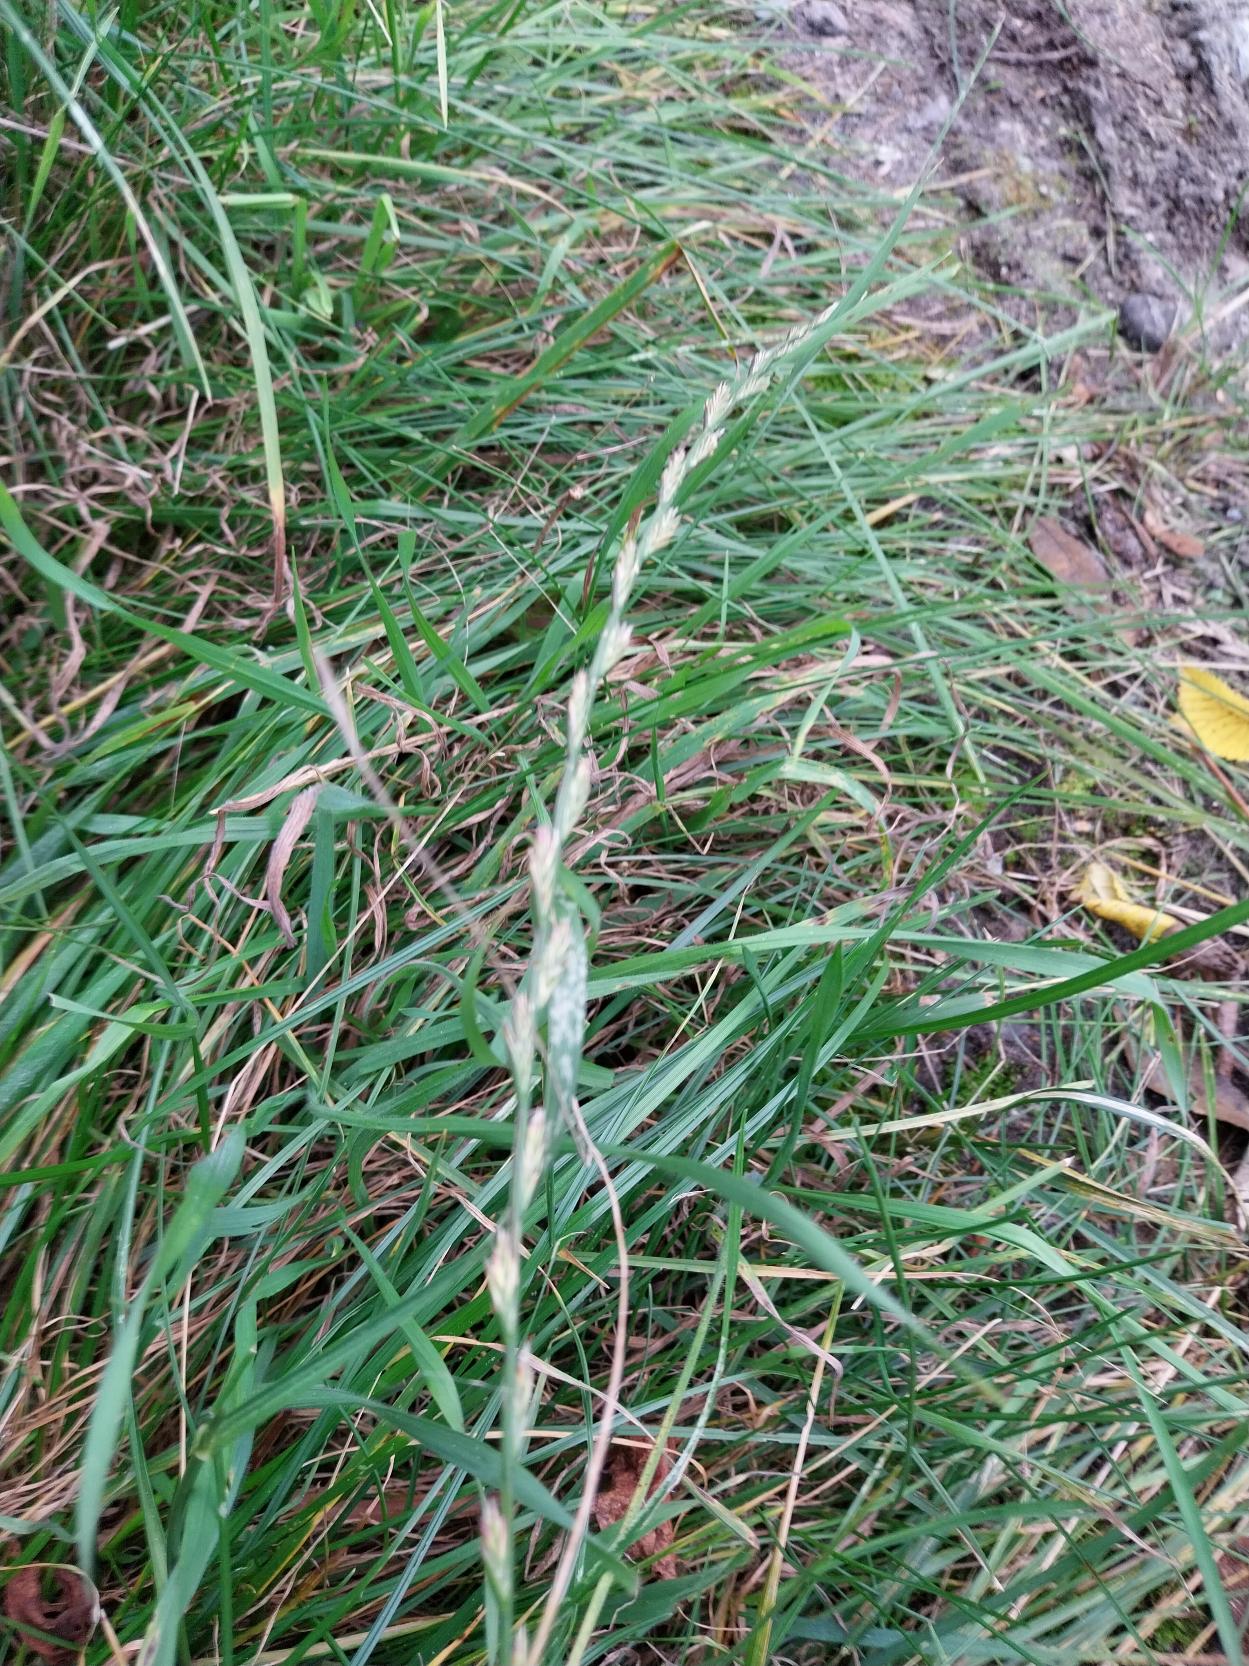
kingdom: Plantae
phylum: Tracheophyta
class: Liliopsida
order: Poales
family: Poaceae
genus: Lolium
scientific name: Lolium perenne
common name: Almindelig rajgræs
